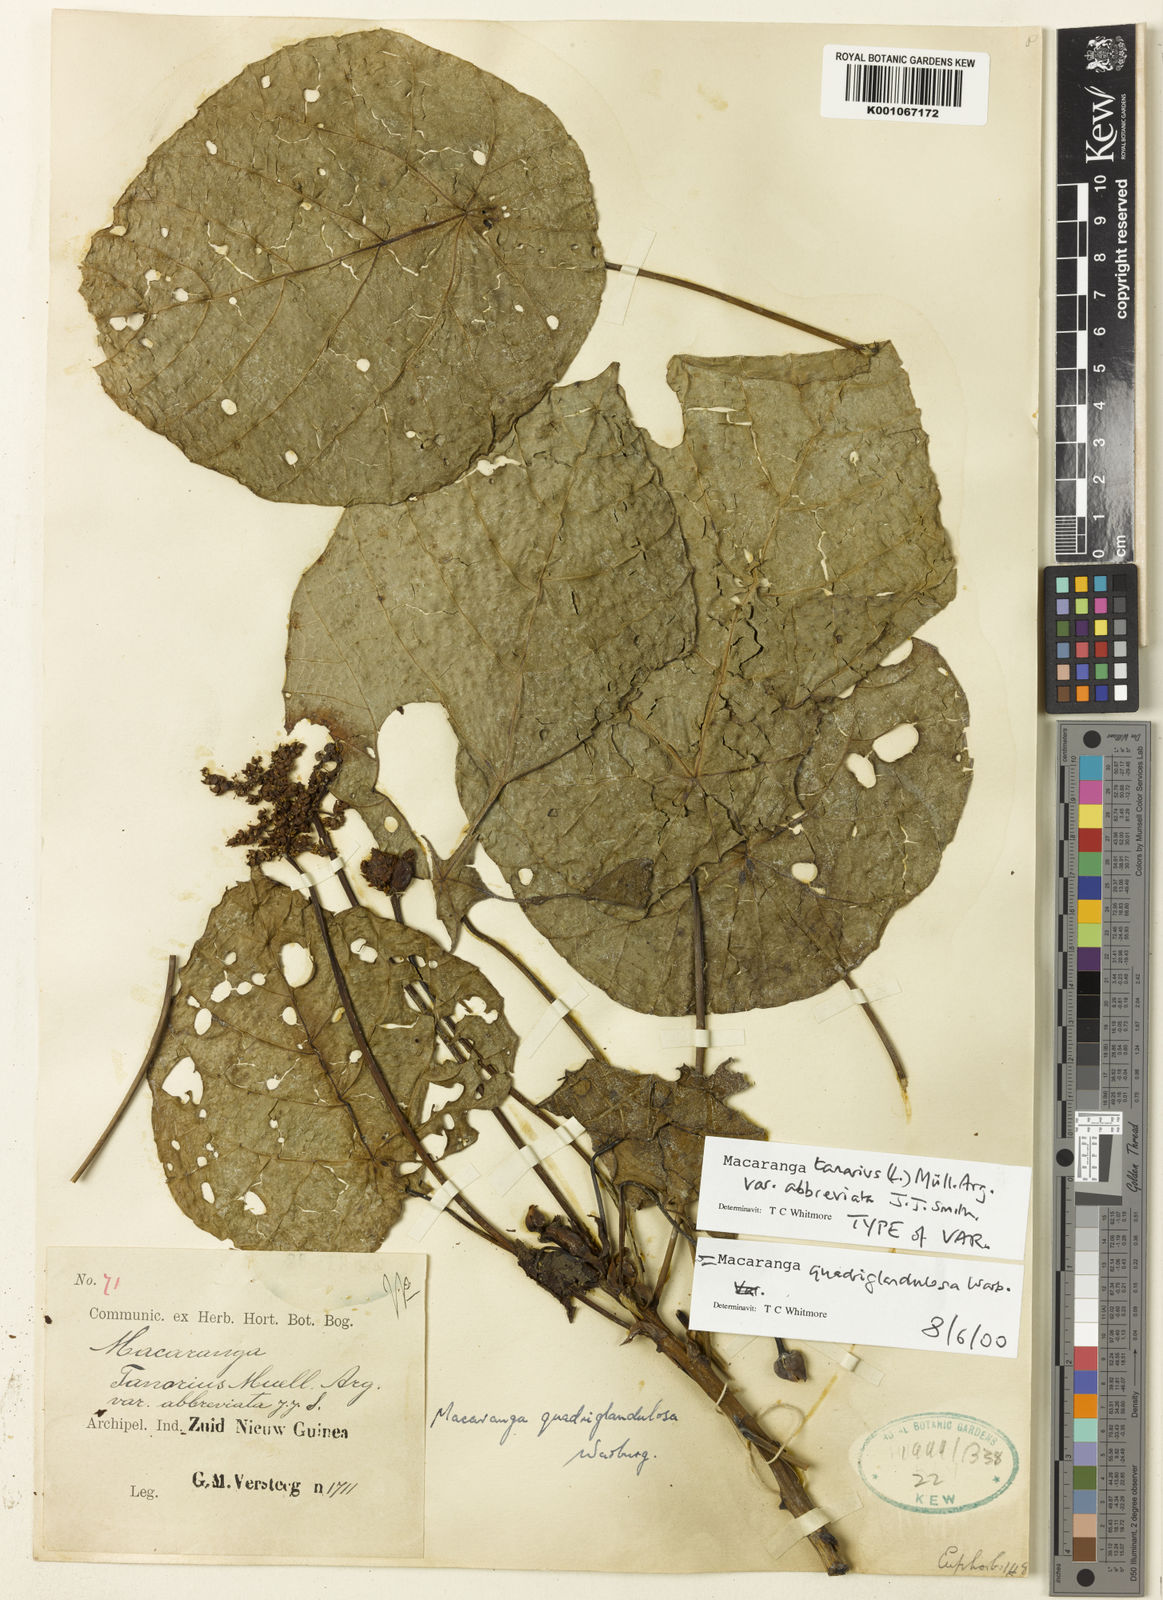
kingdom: Plantae
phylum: Tracheophyta
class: Magnoliopsida
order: Malpighiales
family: Euphorbiaceae
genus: Macaranga
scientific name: Macaranga quadriglandulosa
